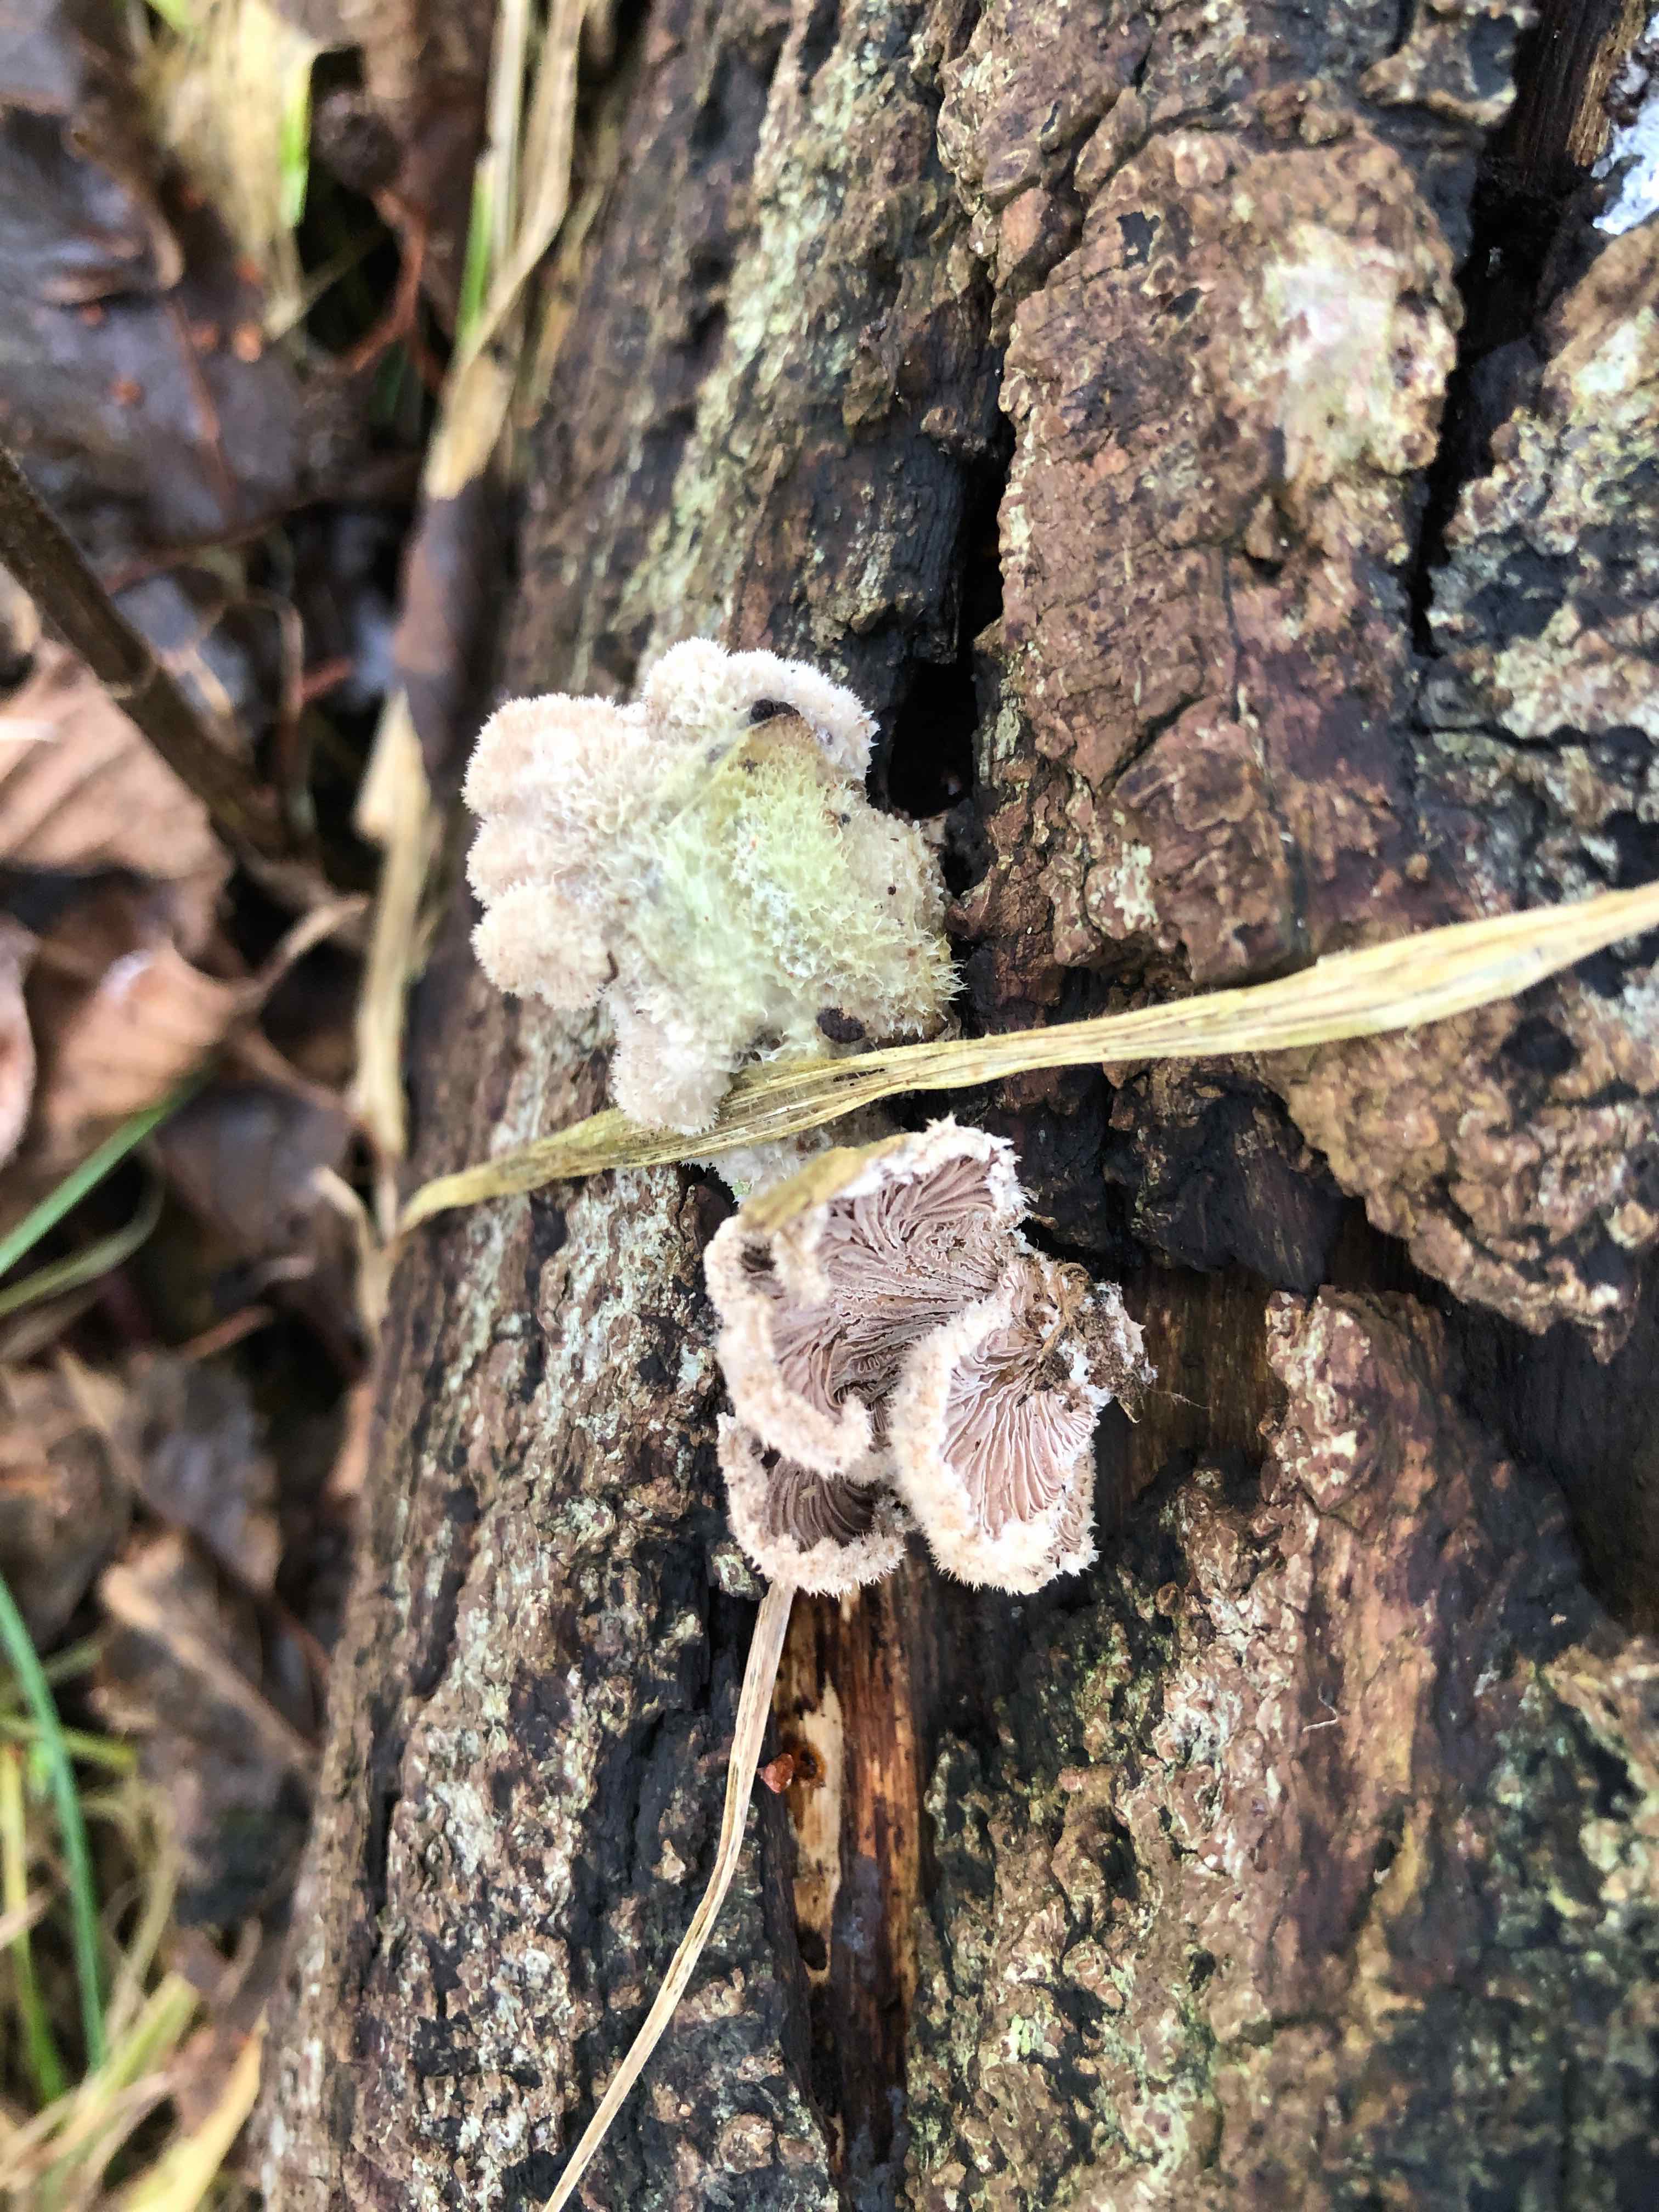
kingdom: Fungi
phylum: Basidiomycota
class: Agaricomycetes
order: Agaricales
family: Schizophyllaceae
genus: Schizophyllum
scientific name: Schizophyllum commune
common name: kløvblad
